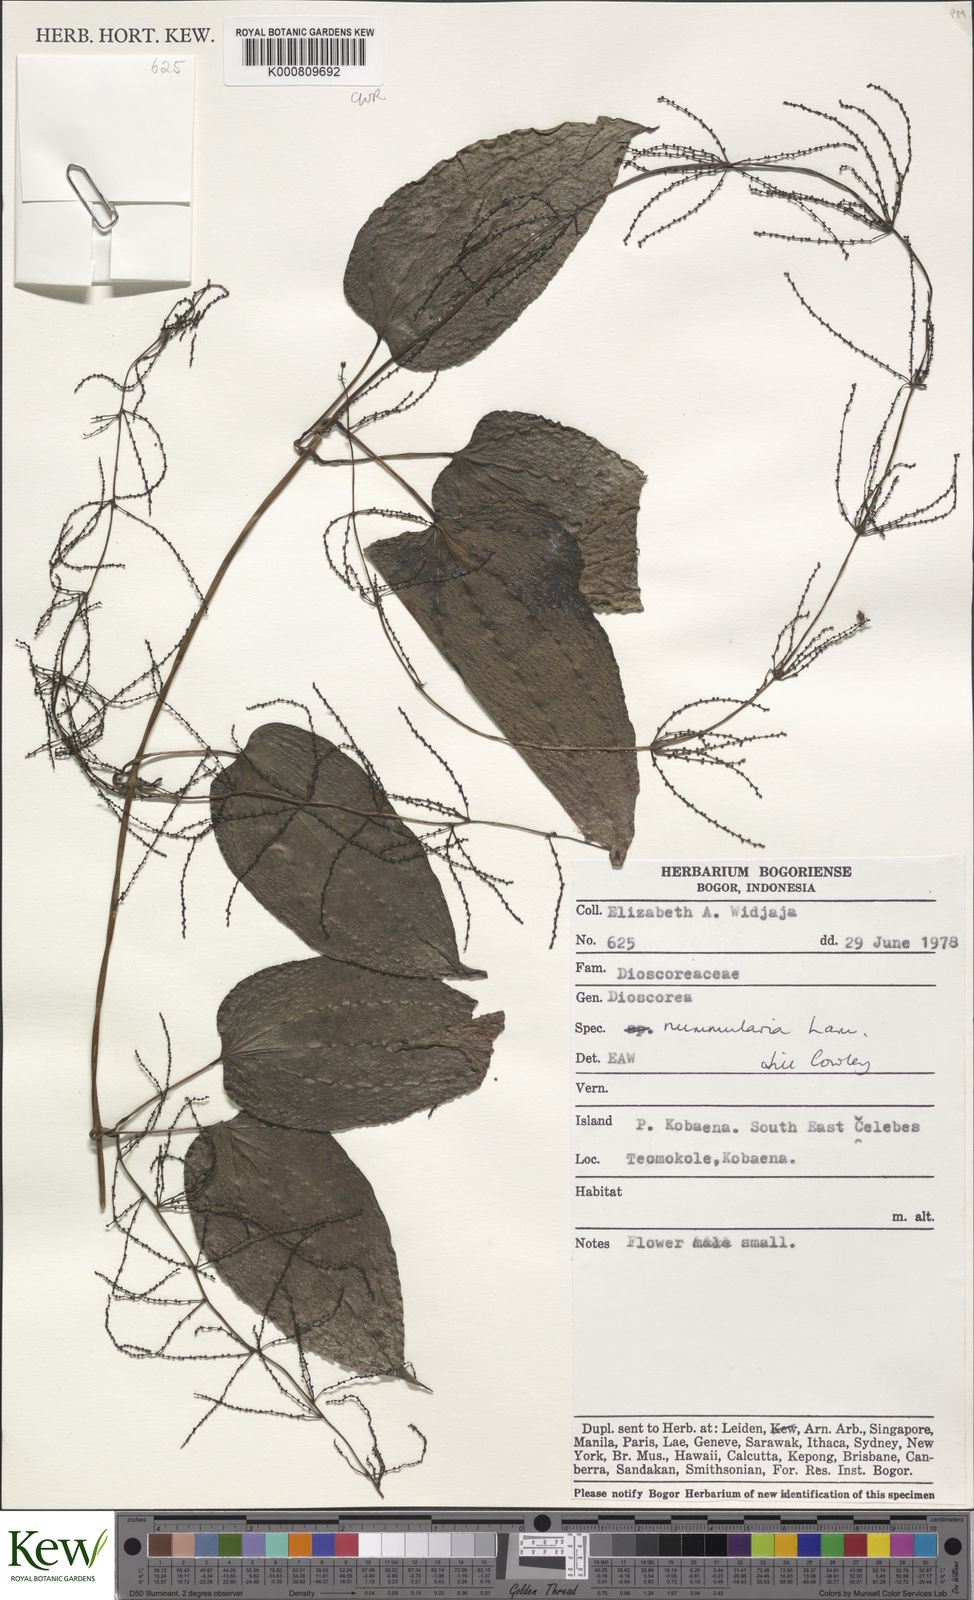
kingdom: Plantae
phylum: Tracheophyta
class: Liliopsida
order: Dioscoreales
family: Dioscoreaceae
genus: Dioscorea
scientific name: Dioscorea nummularia
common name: Pacific yam
